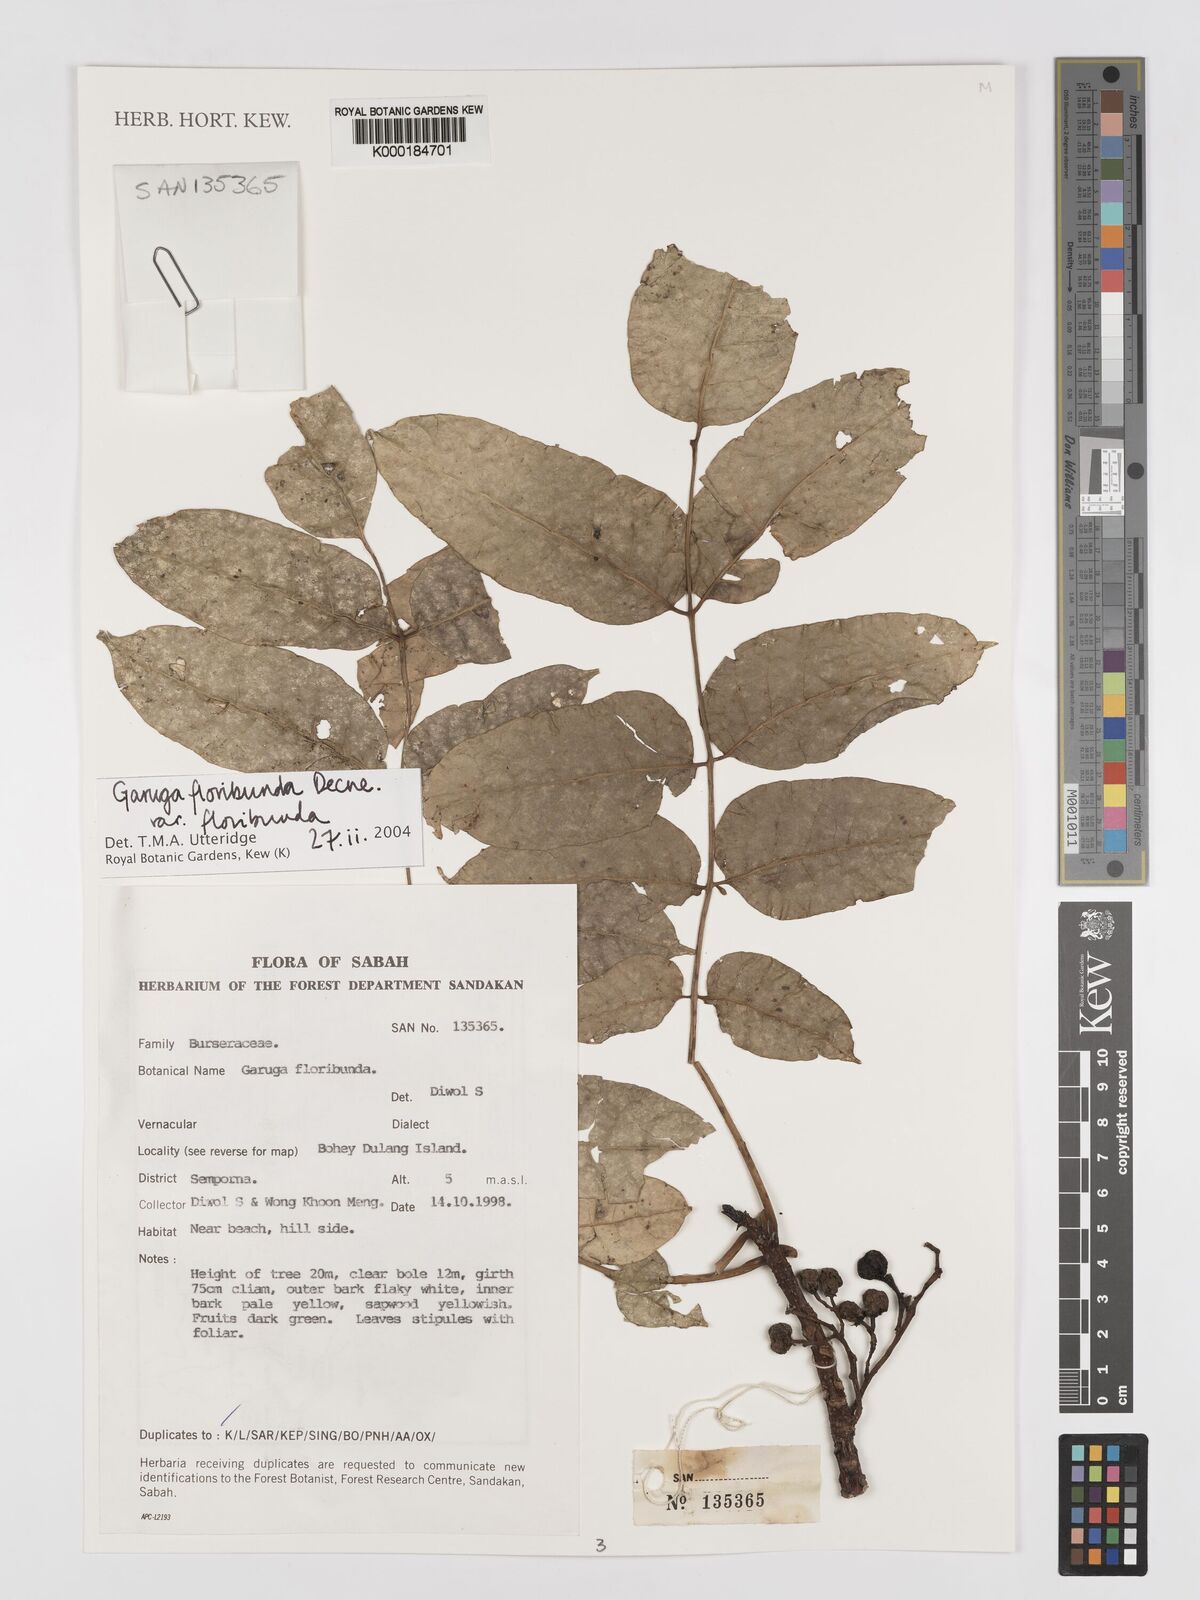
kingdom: Plantae
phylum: Tracheophyta
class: Magnoliopsida
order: Sapindales
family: Burseraceae
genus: Garuga
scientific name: Garuga floribunda
